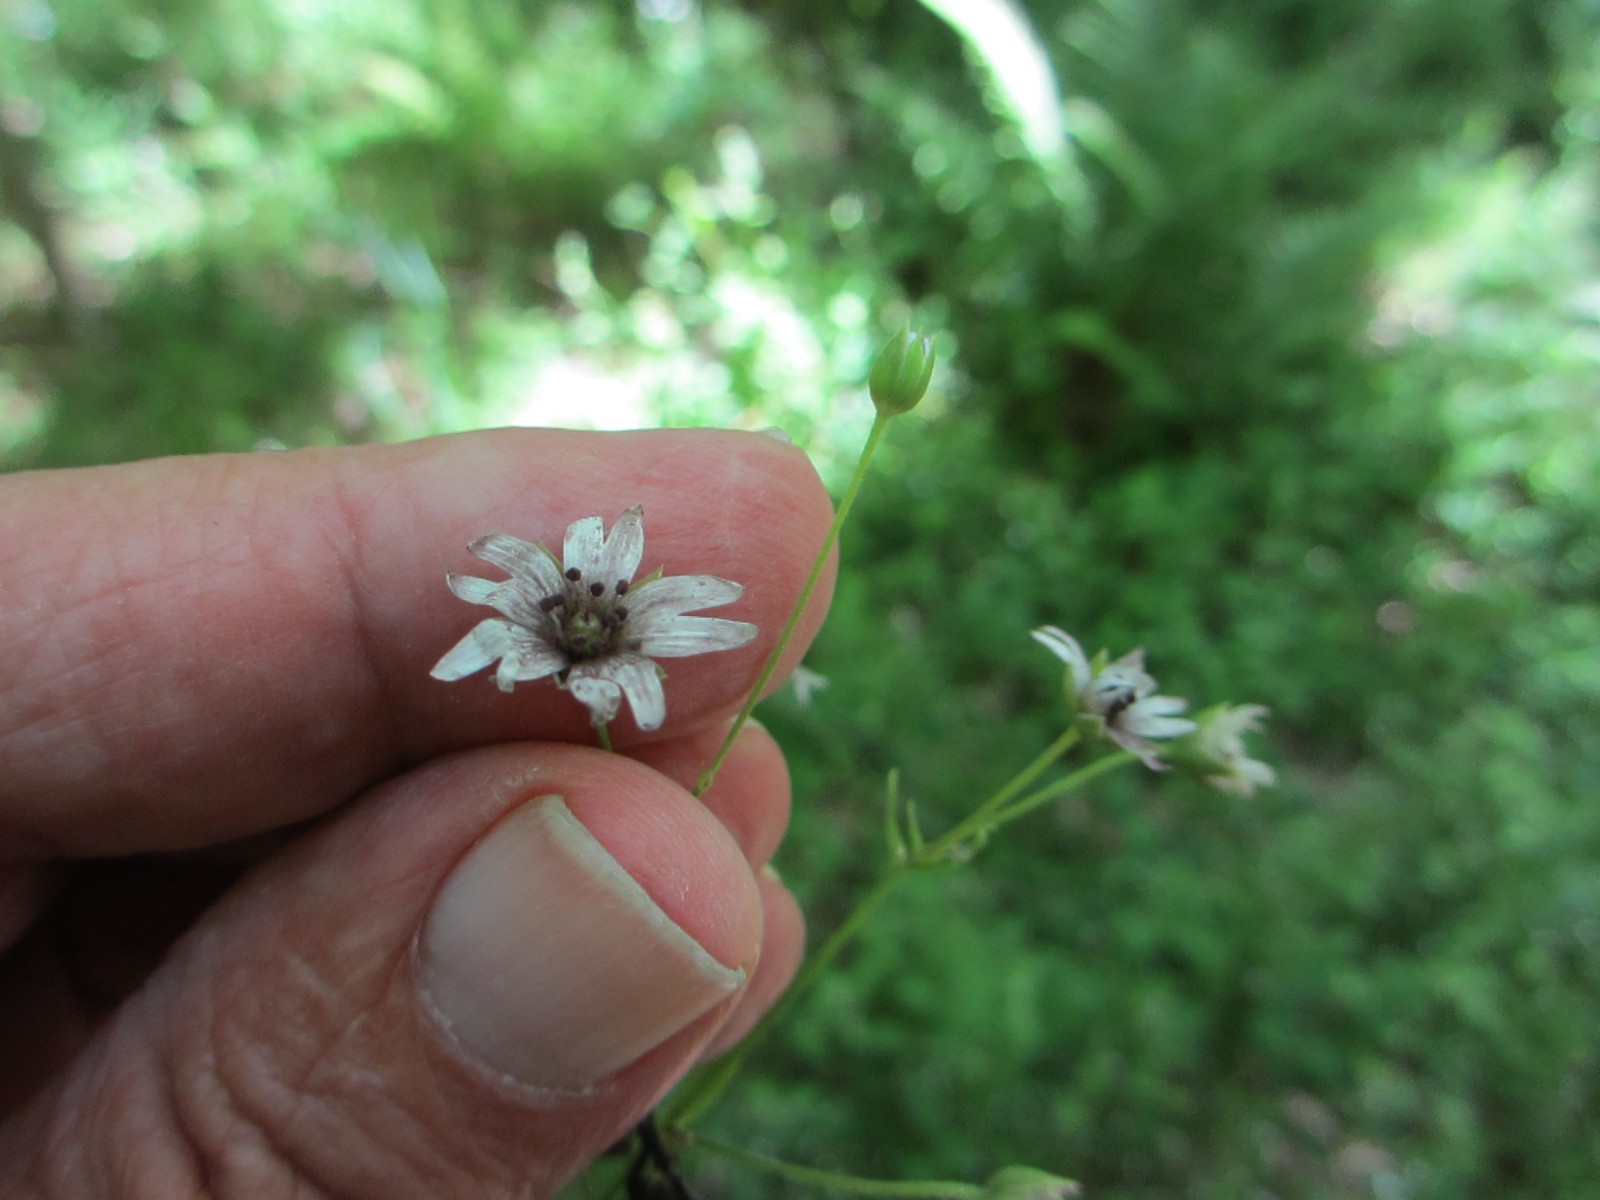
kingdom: Fungi
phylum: Basidiomycota
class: Microbotryomycetes
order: Microbotryales
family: Microbotryaceae
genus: Microbotryum
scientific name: Microbotryum stellariae
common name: fladstjerne-støvbladrust
